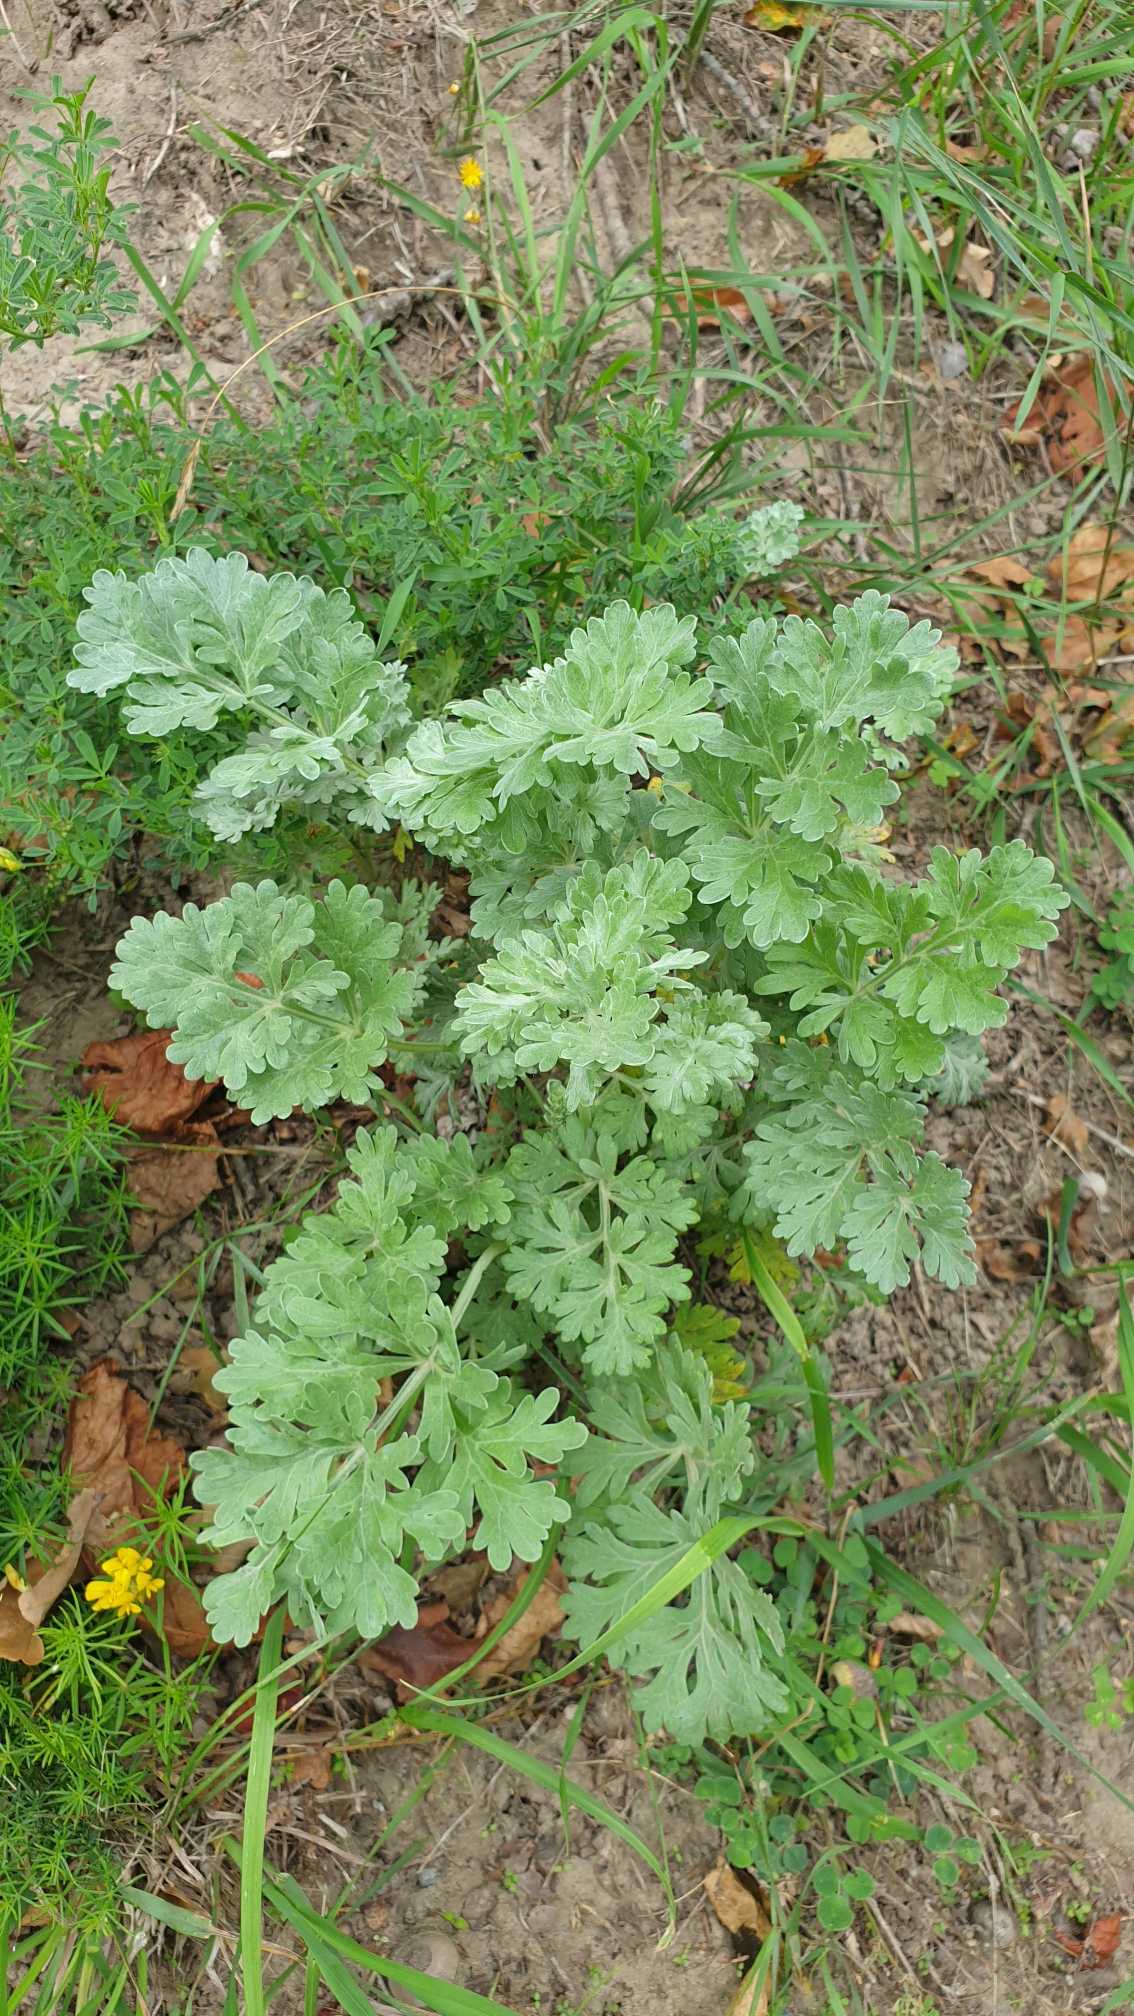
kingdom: Plantae
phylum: Tracheophyta
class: Magnoliopsida
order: Asterales
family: Asteraceae
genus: Artemisia
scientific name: Artemisia absinthium
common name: Havemalurt
